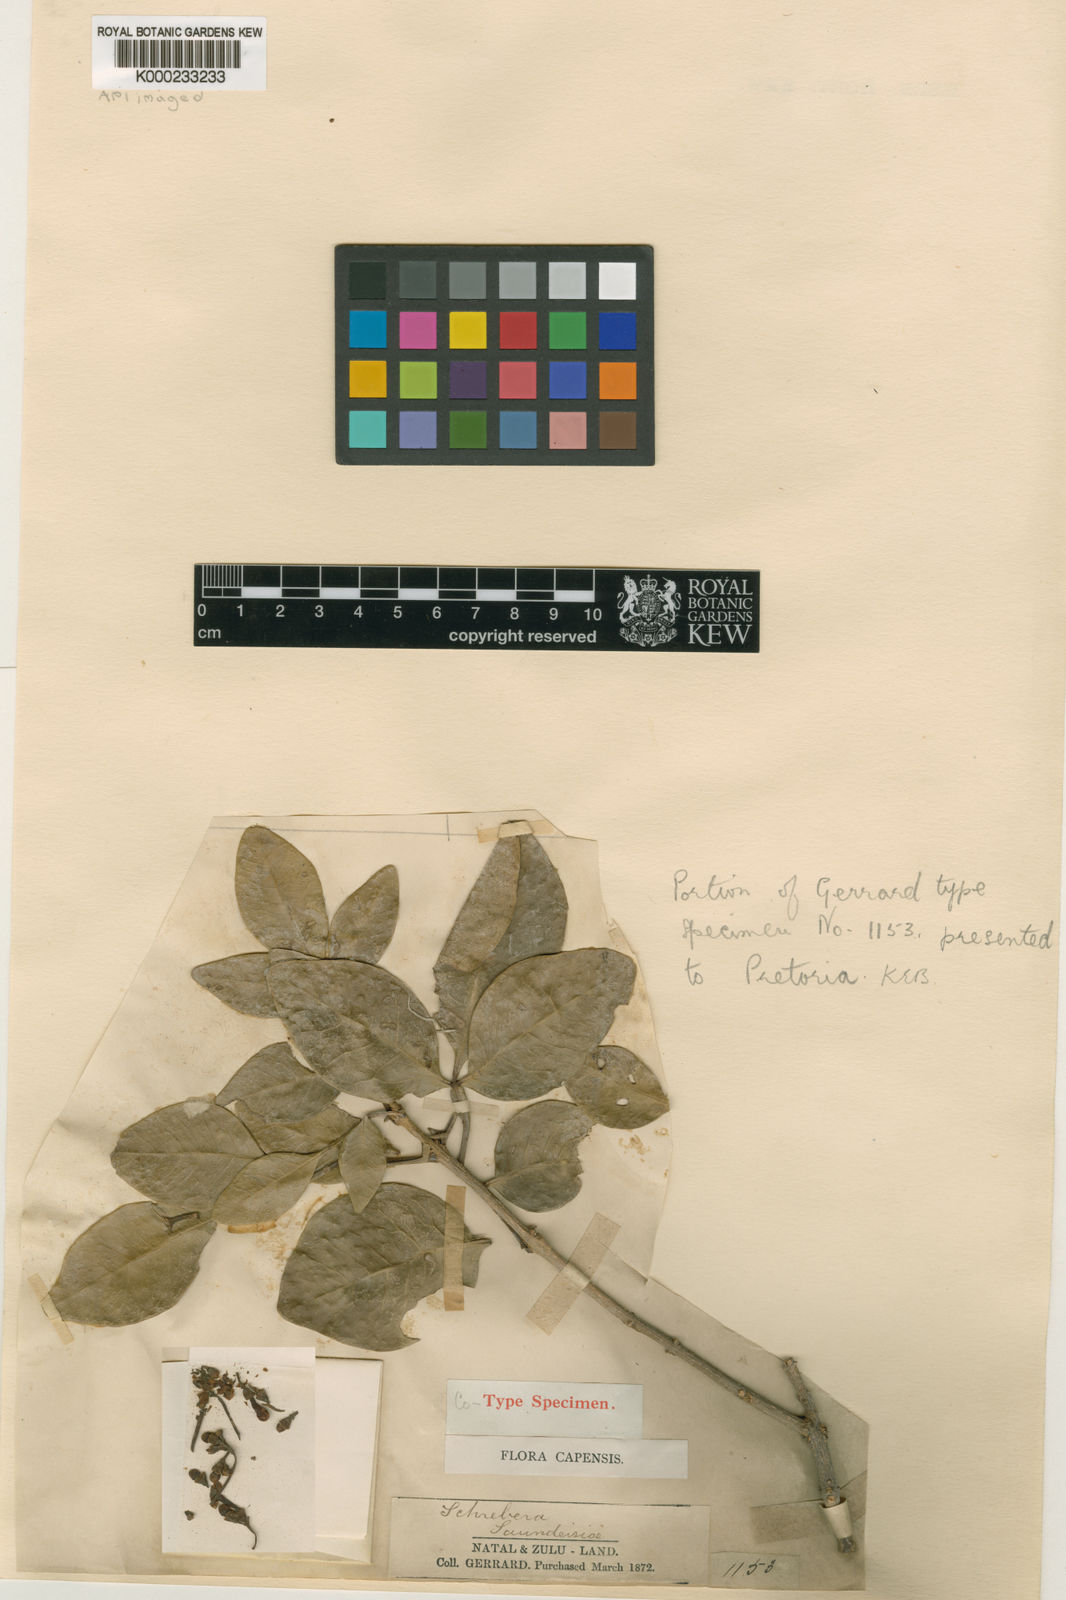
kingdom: Plantae
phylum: Tracheophyta
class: Magnoliopsida
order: Lamiales
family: Oleaceae
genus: Schrebera
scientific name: Schrebera alata
